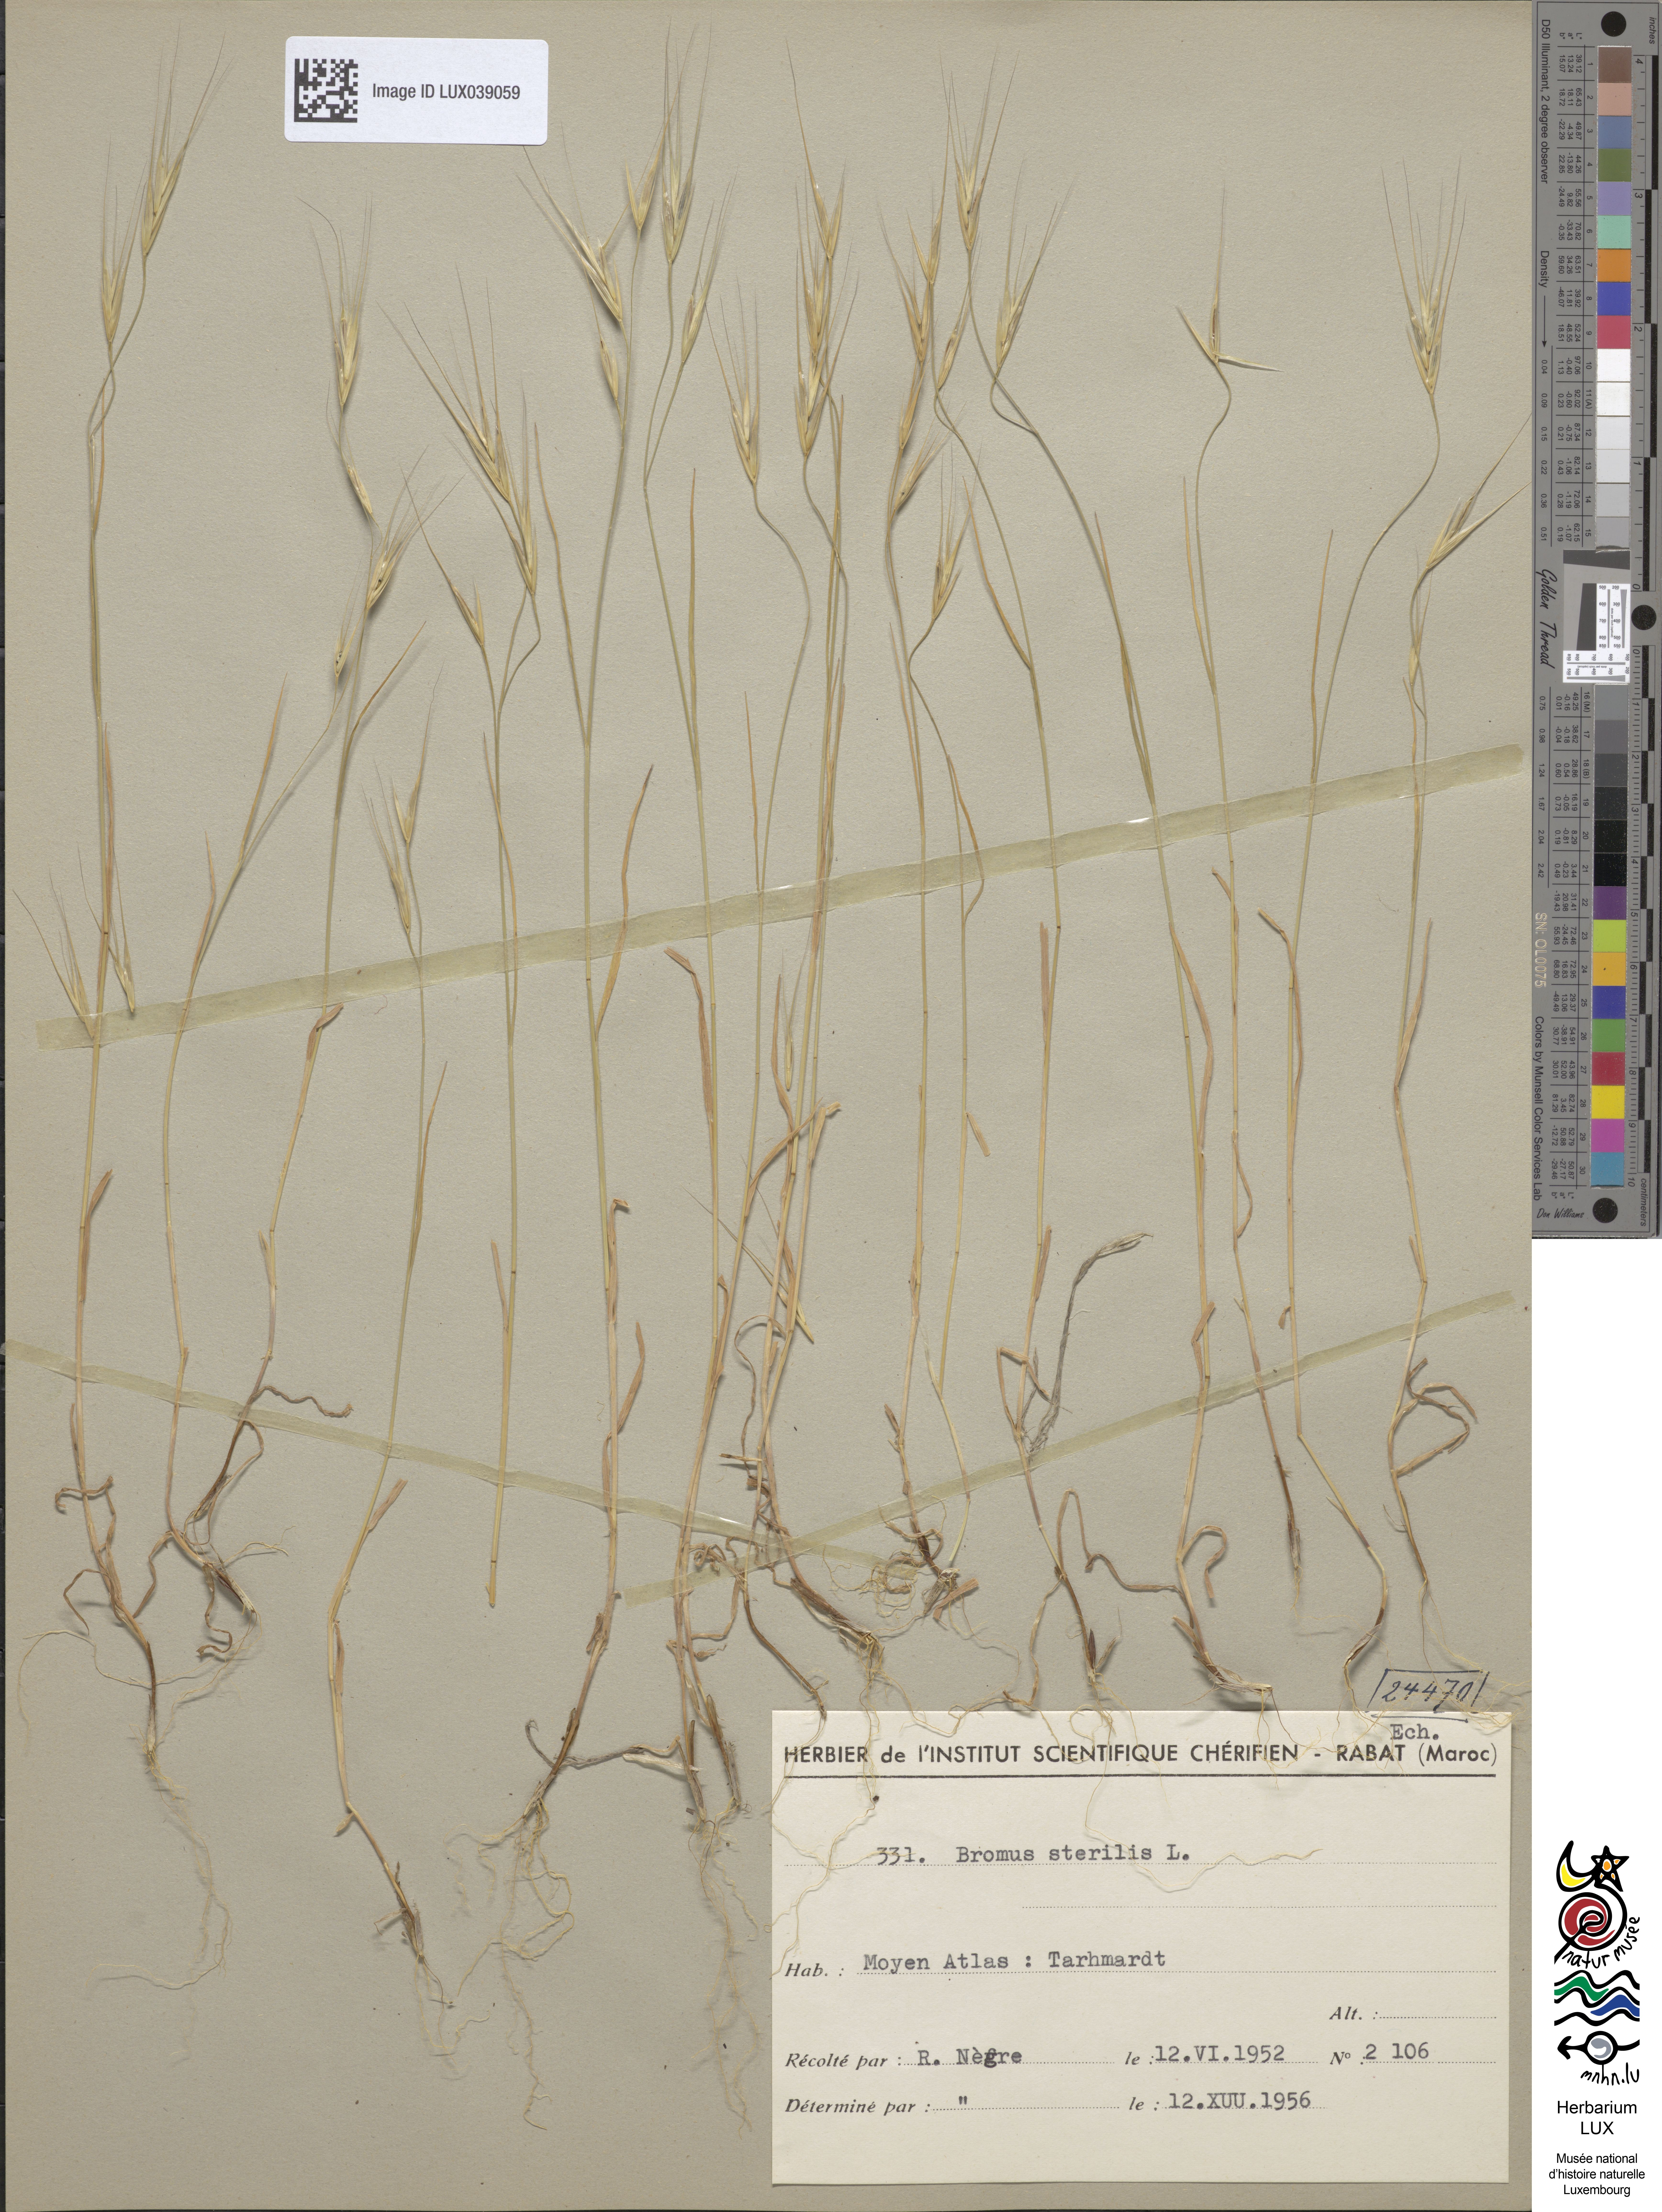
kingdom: Plantae
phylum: Tracheophyta
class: Liliopsida
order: Poales
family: Poaceae
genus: Bromus
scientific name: Bromus sterilis
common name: Poverty brome
